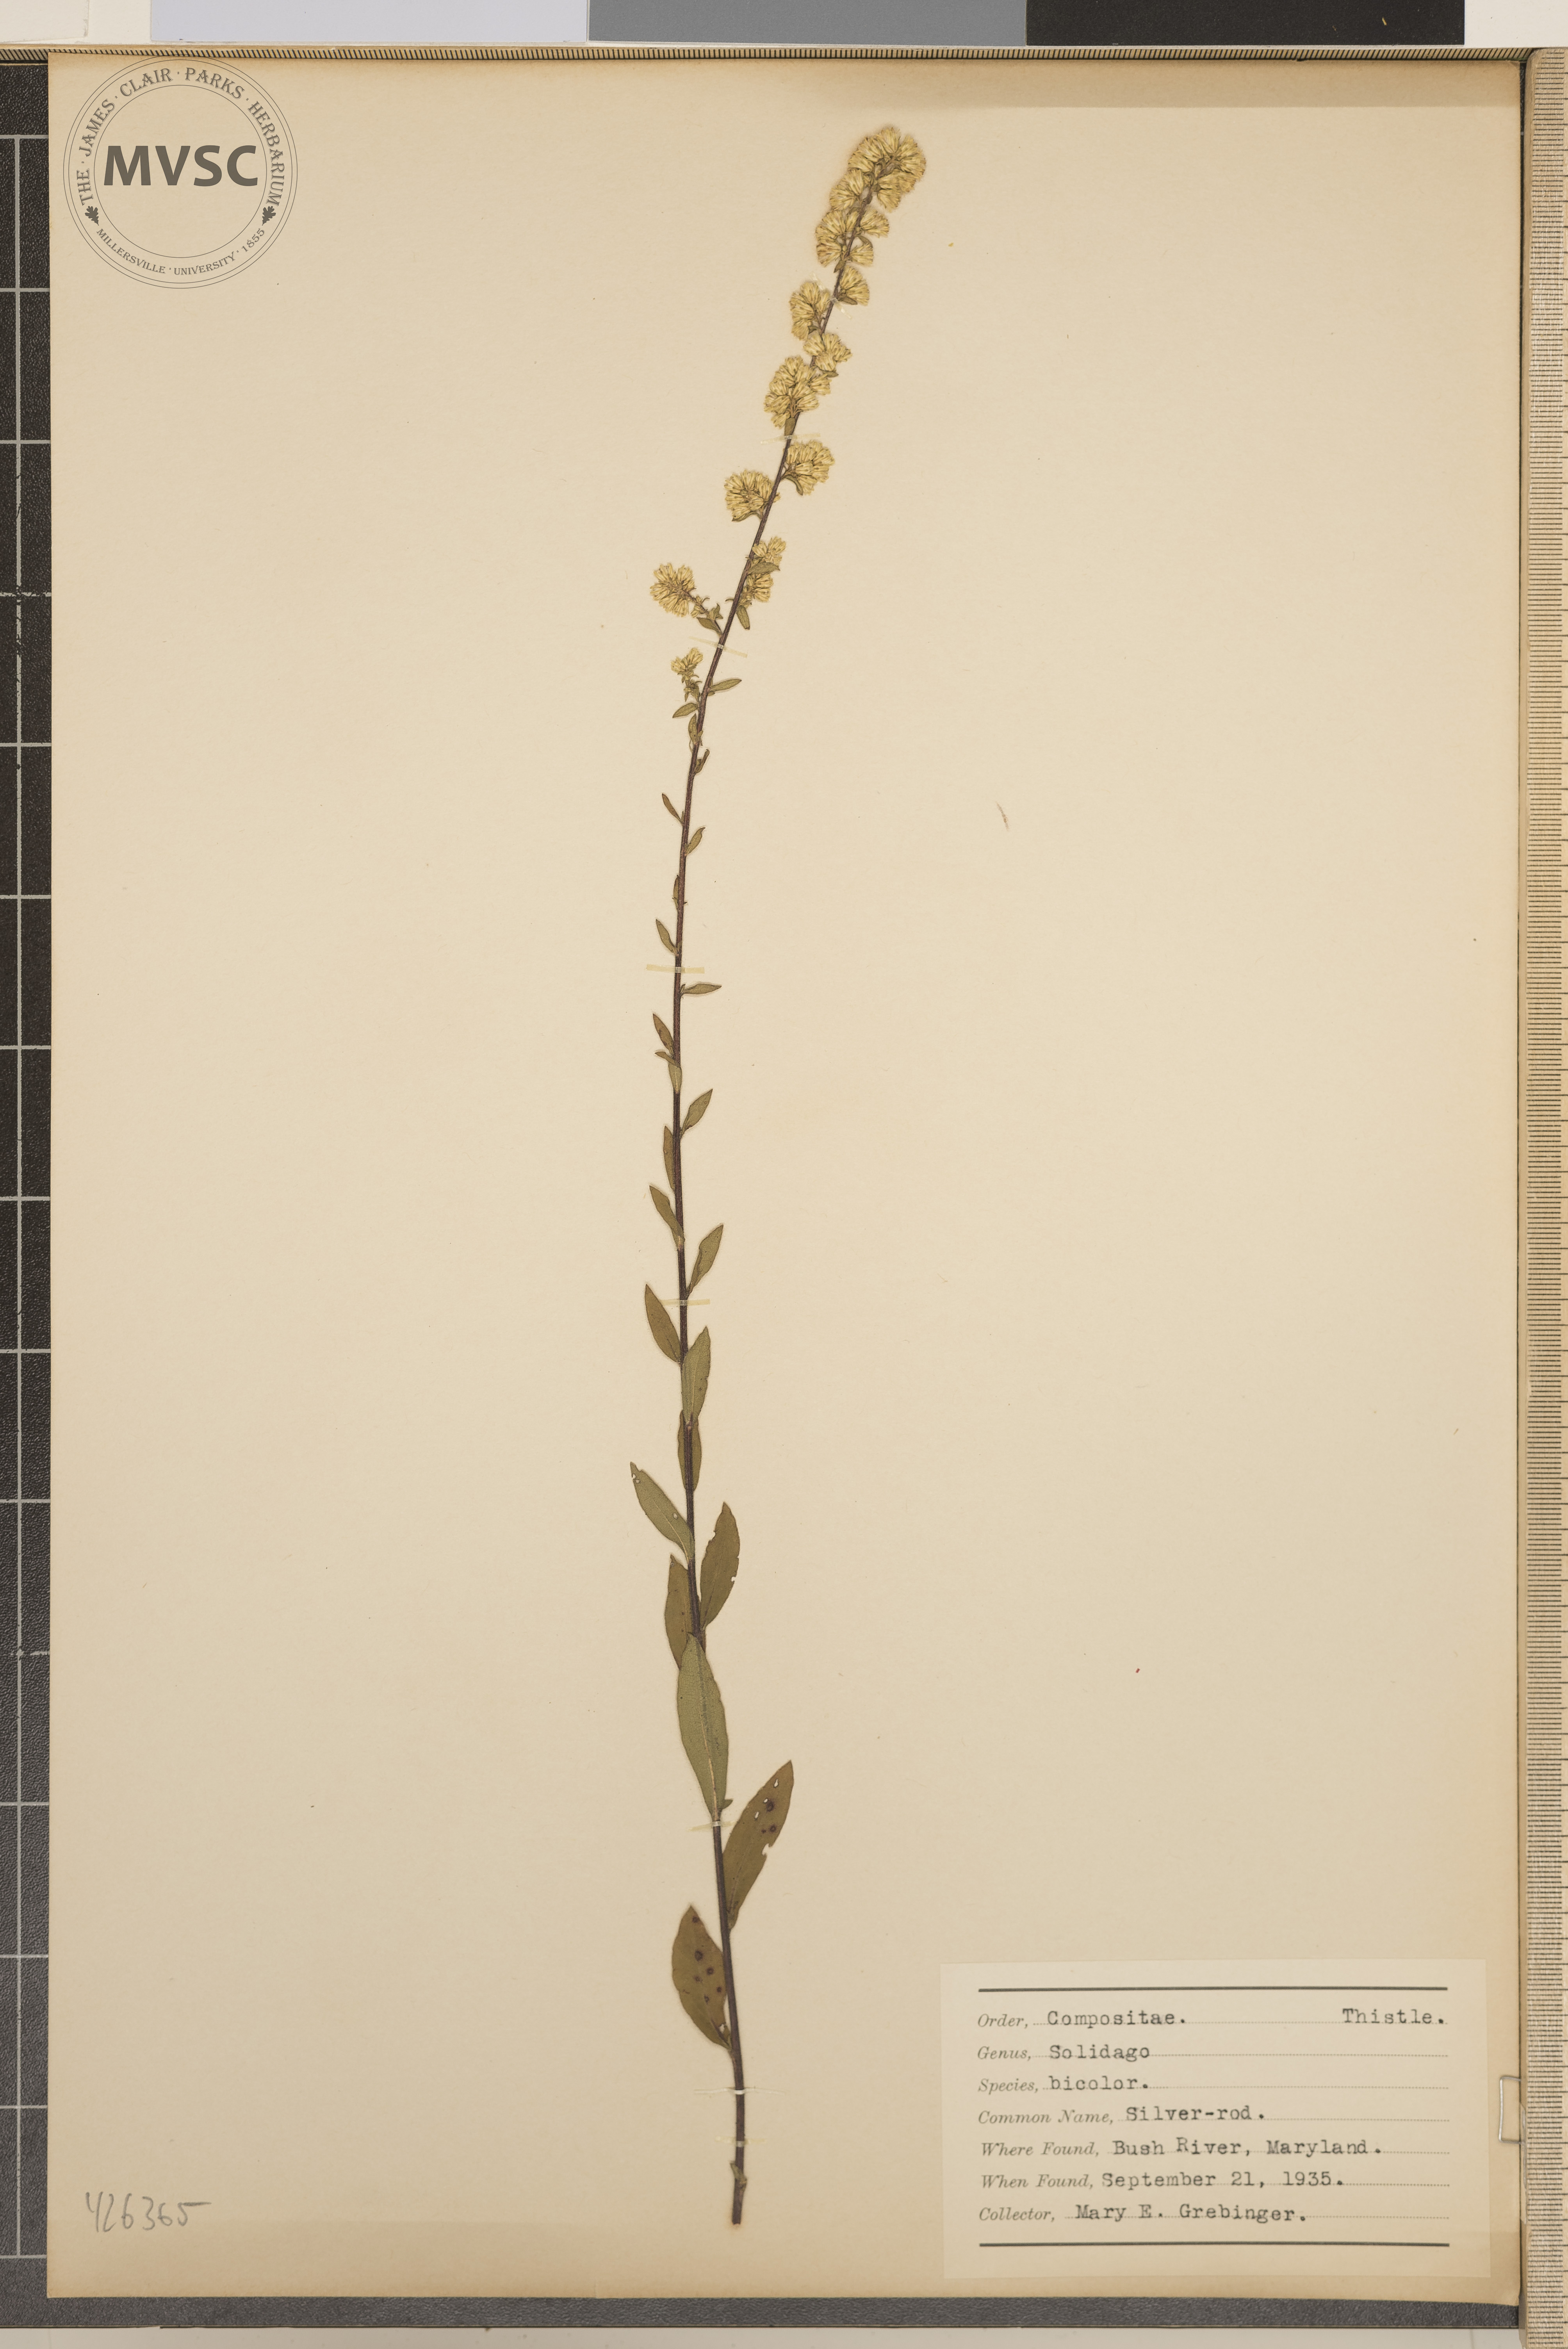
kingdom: Plantae
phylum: Tracheophyta
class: Magnoliopsida
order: Asterales
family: Asteraceae
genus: Solidago
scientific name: Solidago bicolor
